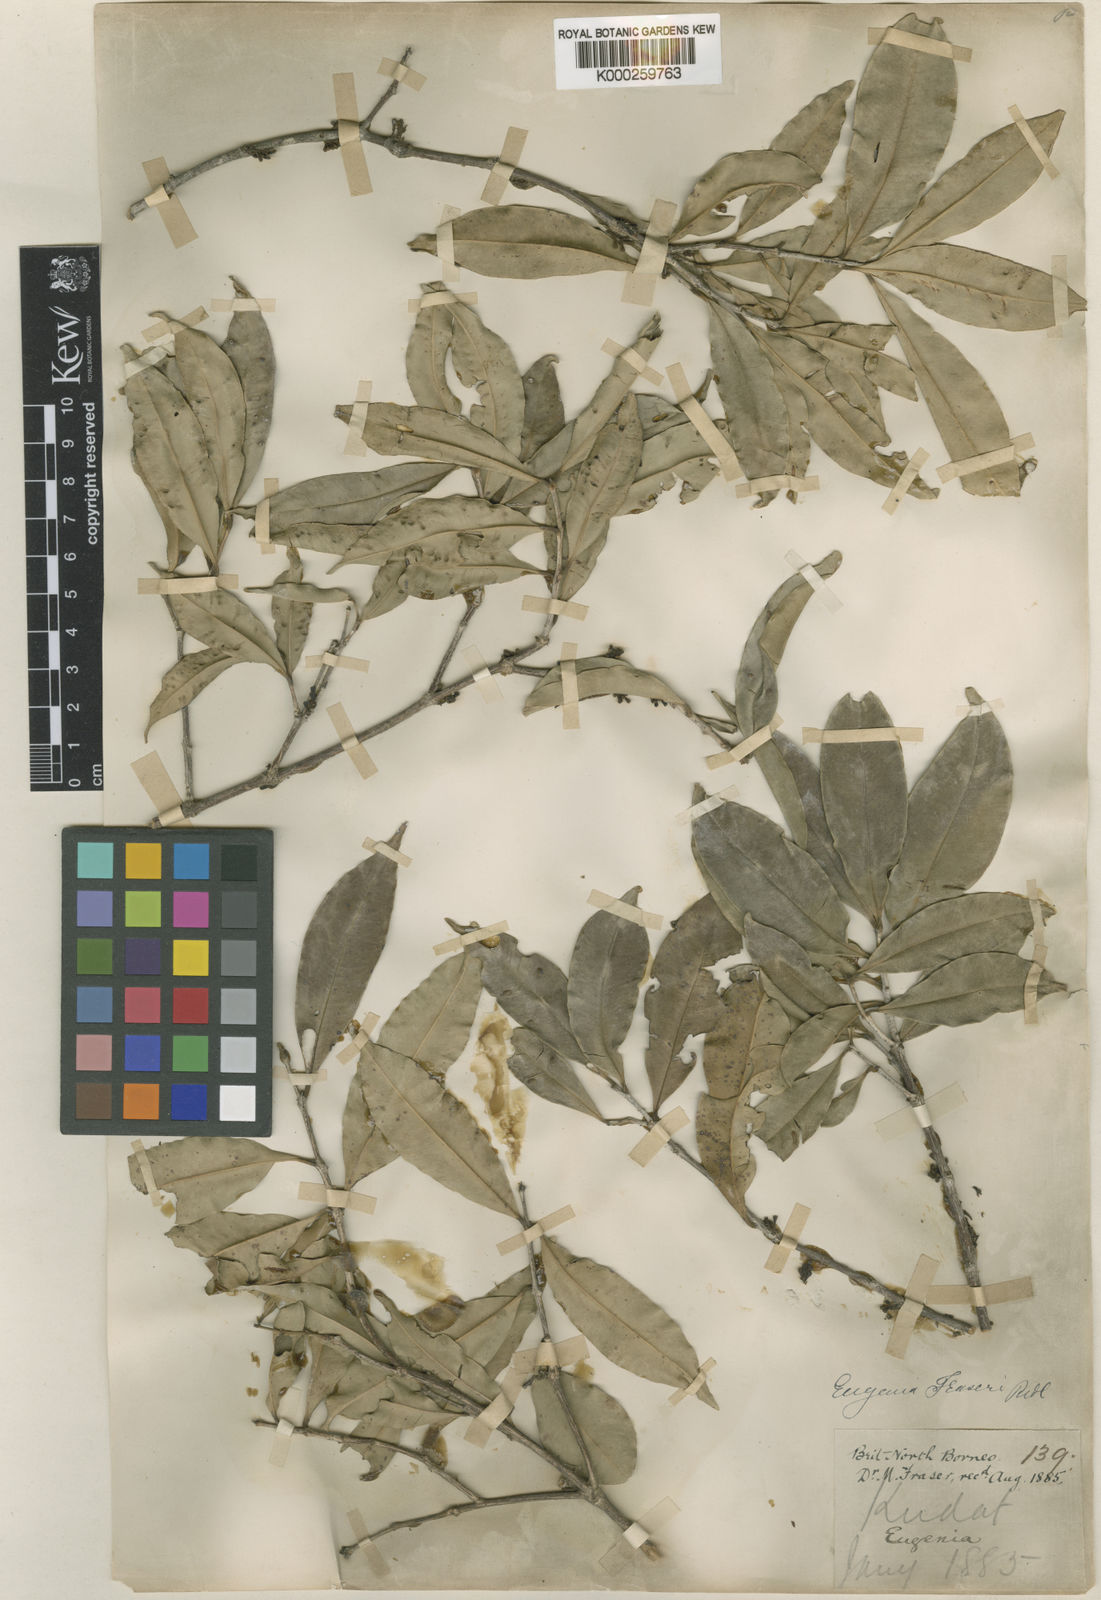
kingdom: Plantae
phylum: Tracheophyta
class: Magnoliopsida
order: Myrtales
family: Myrtaceae
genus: Syzygium
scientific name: Syzygium claviflorum
